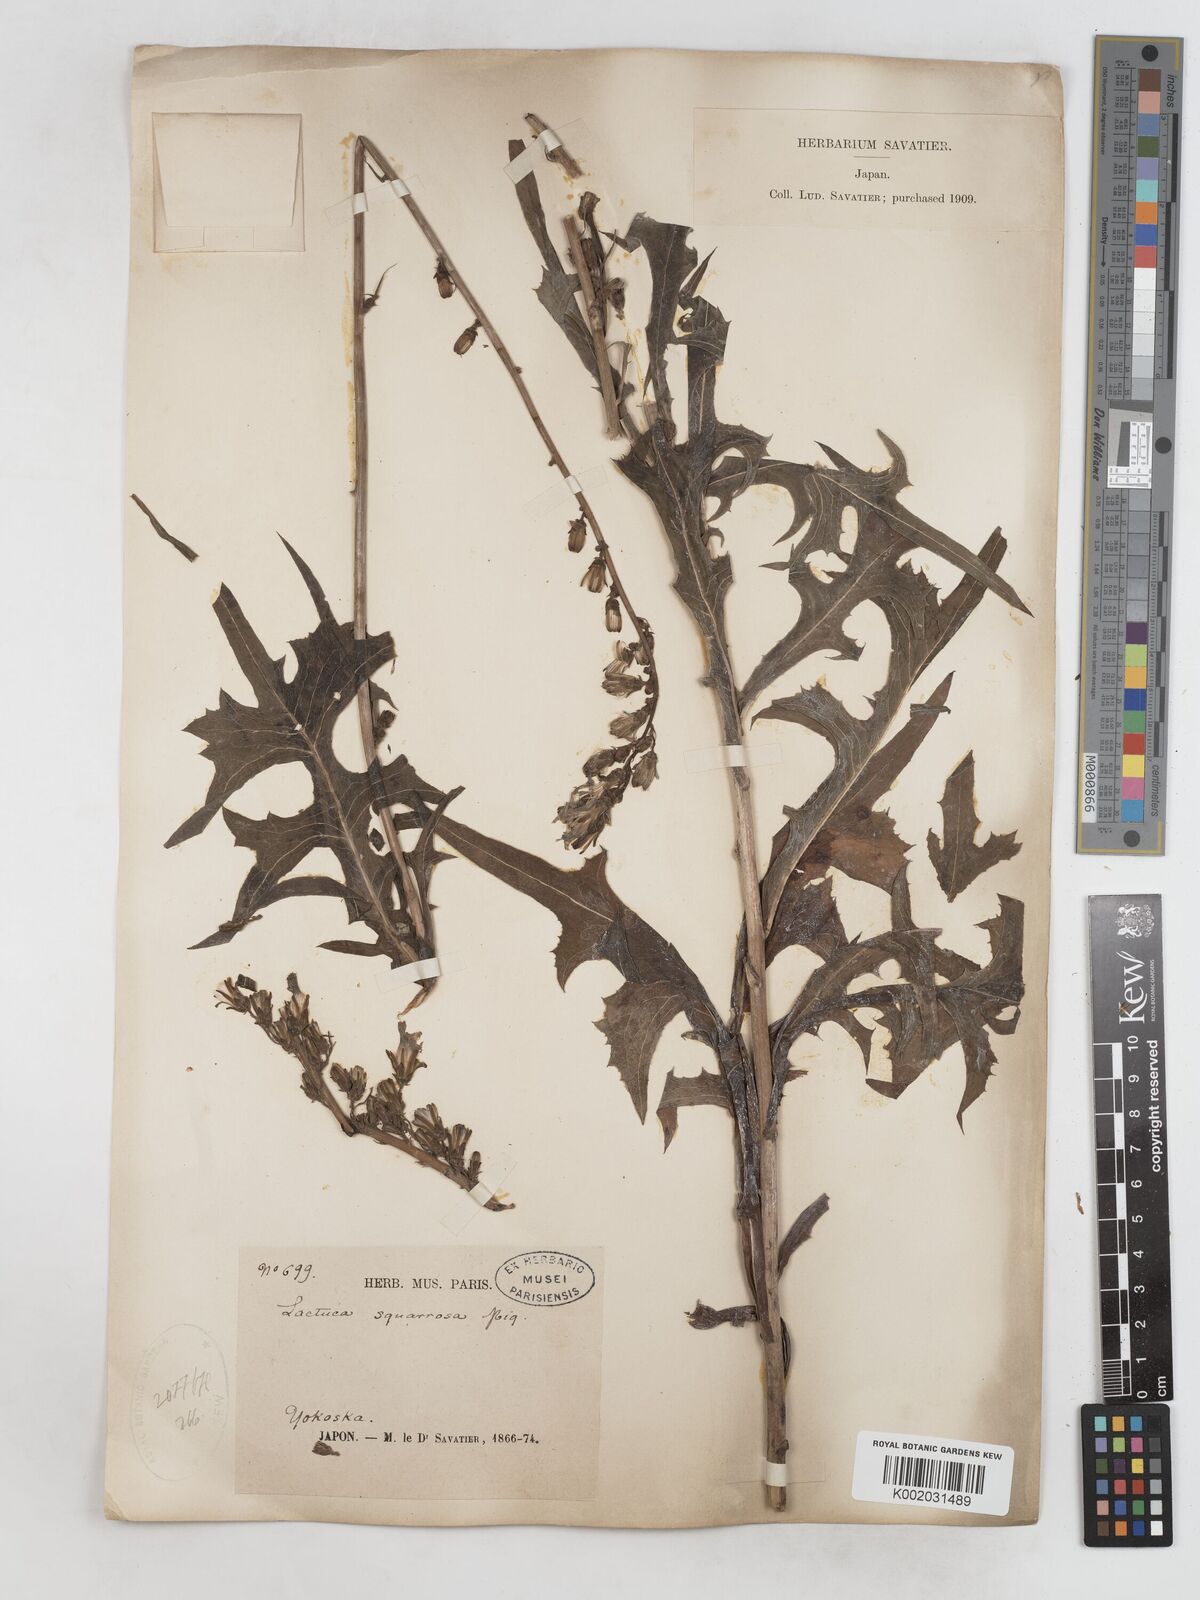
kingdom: Plantae
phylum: Tracheophyta
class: Magnoliopsida
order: Asterales
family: Asteraceae
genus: Lactuca
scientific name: Lactuca indica
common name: Wild lettuce
